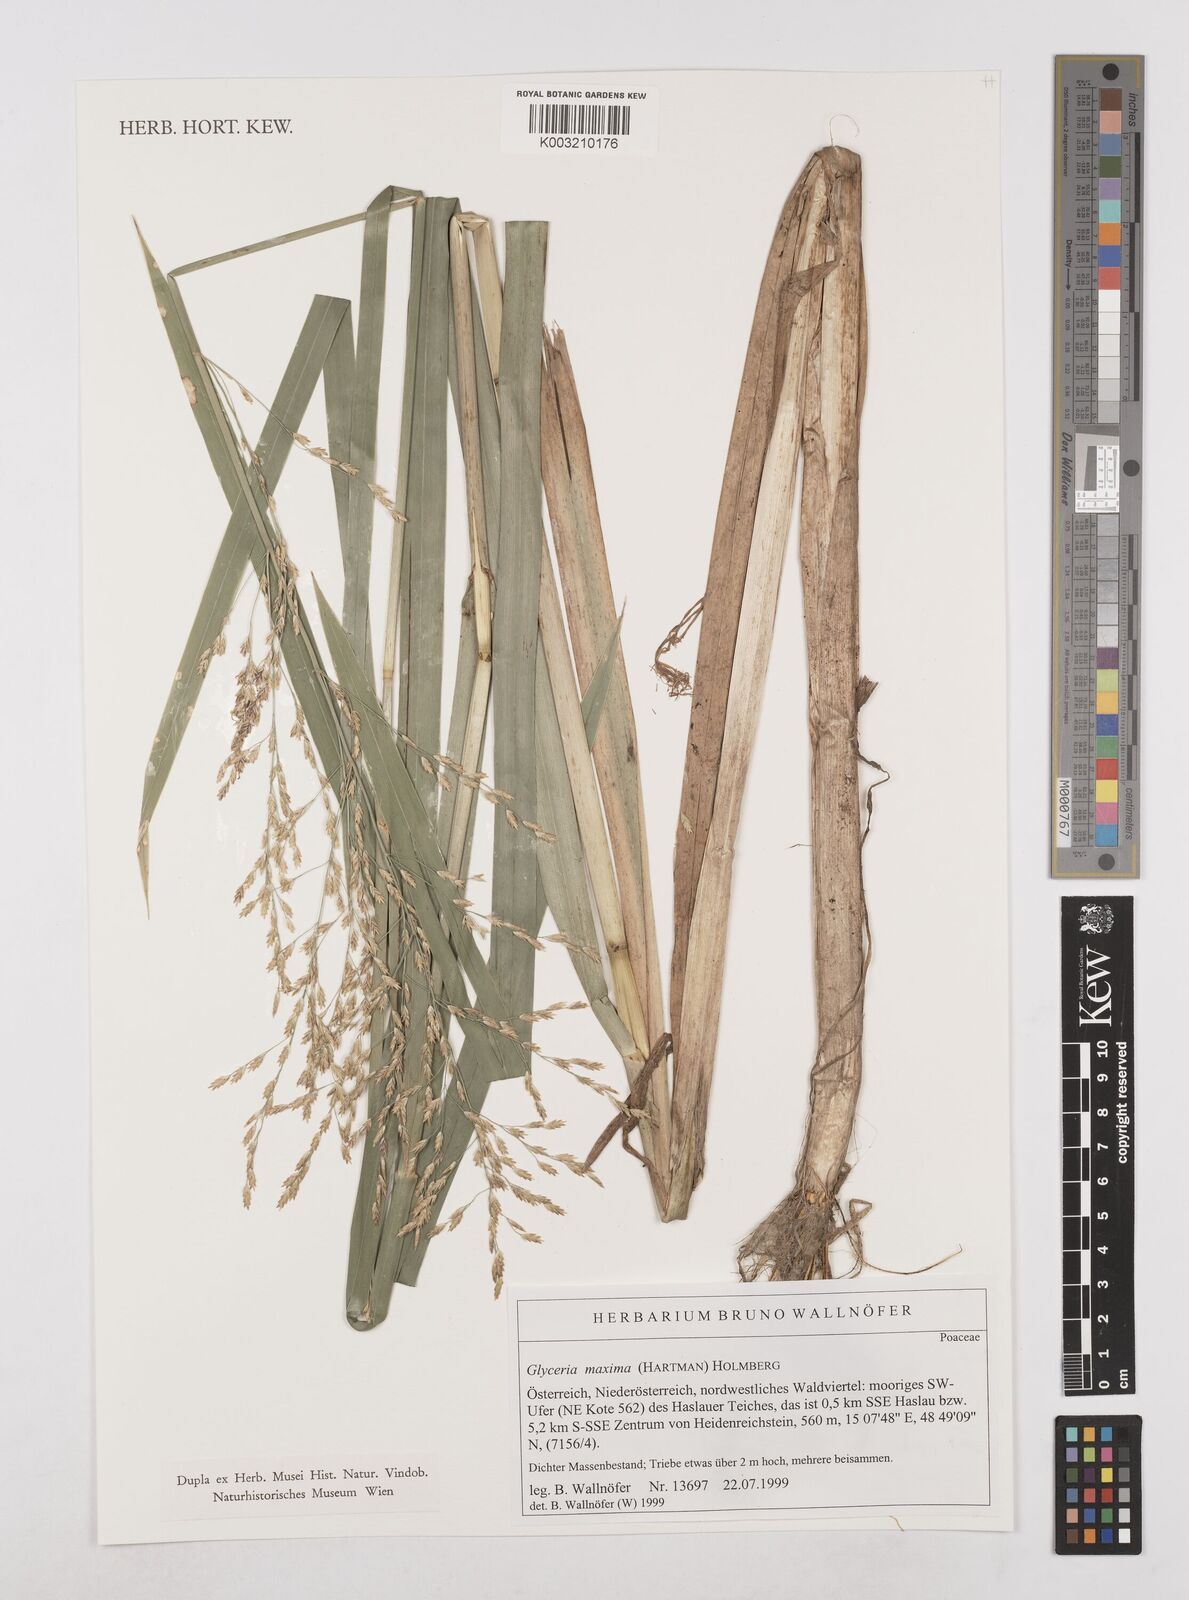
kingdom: Plantae
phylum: Tracheophyta
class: Liliopsida
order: Poales
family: Poaceae
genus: Glyceria
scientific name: Glyceria maxima
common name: Reed mannagrass
